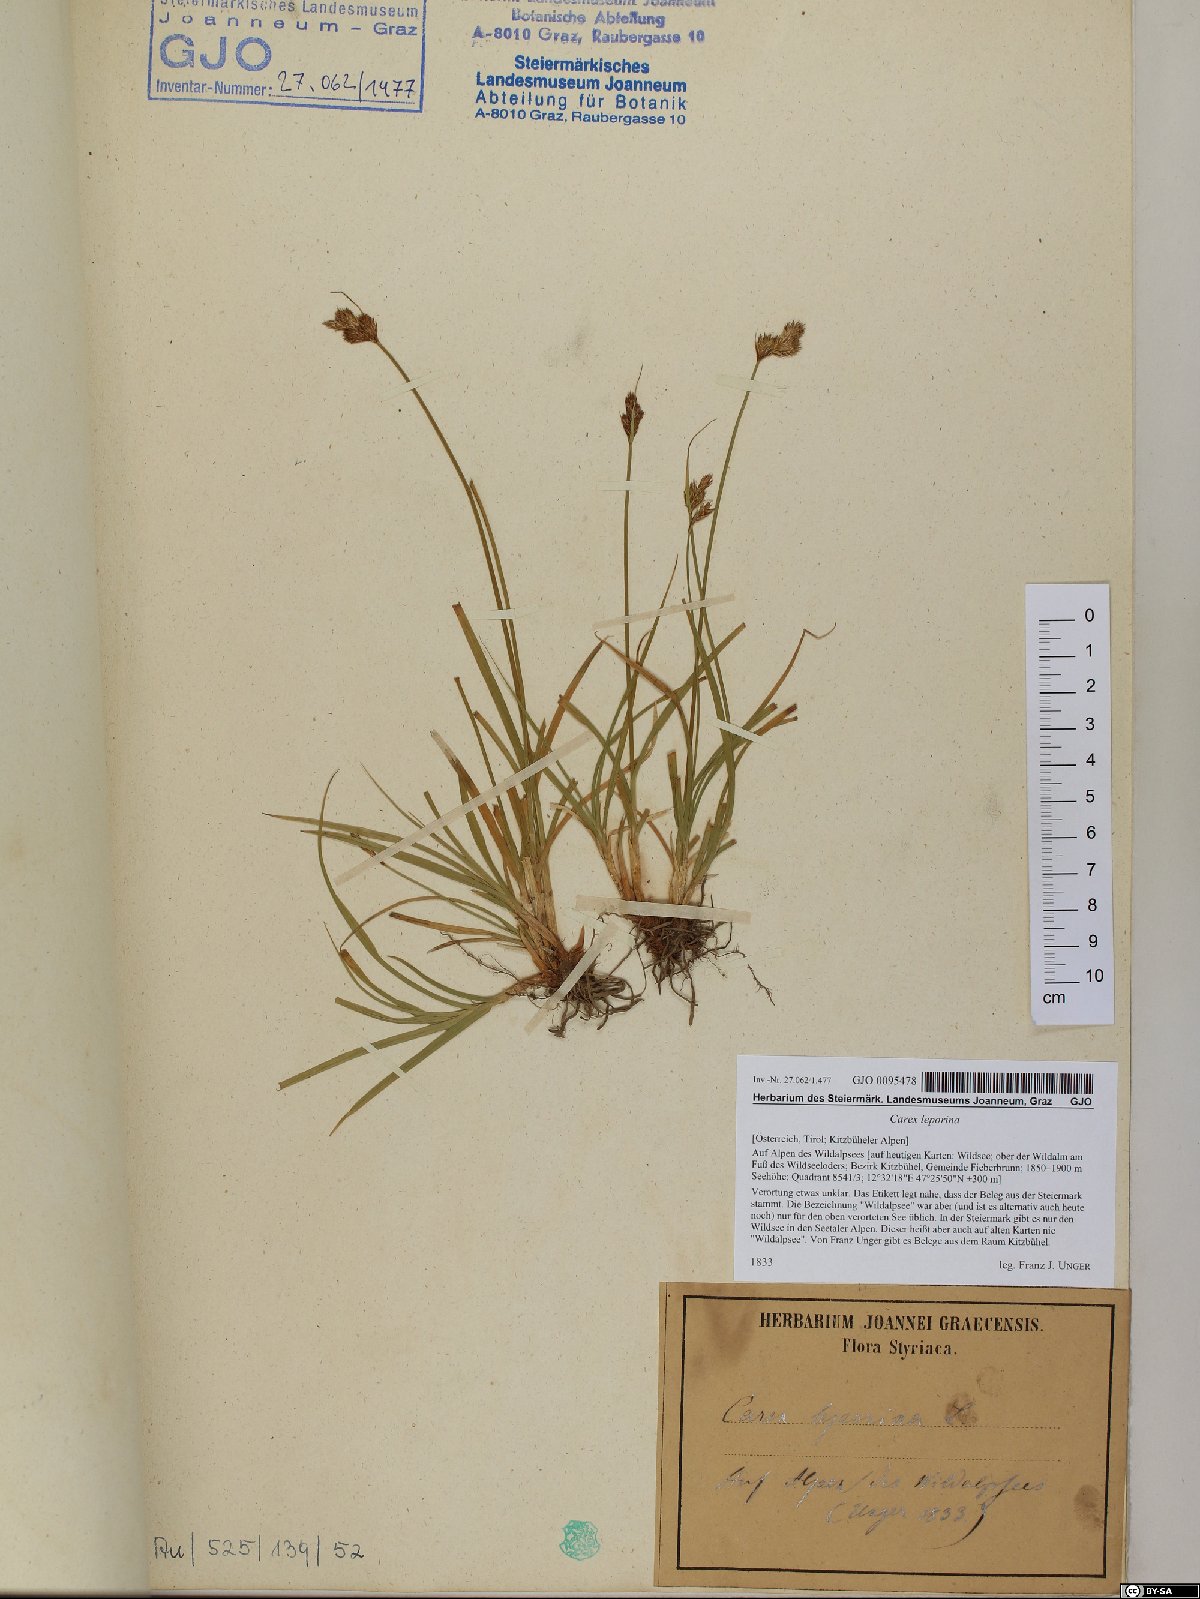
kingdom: Plantae
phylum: Tracheophyta
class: Liliopsida
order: Poales
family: Cyperaceae
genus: Carex
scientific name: Carex leporina
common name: Oval sedge
